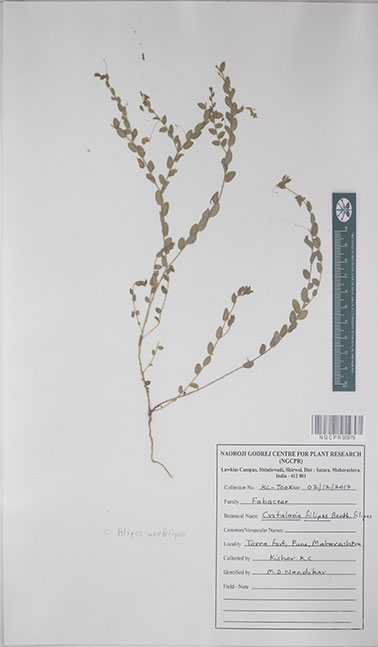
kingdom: Plantae
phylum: Tracheophyta
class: Magnoliopsida
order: Fabales
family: Fabaceae
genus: Crotalaria
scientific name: Crotalaria
